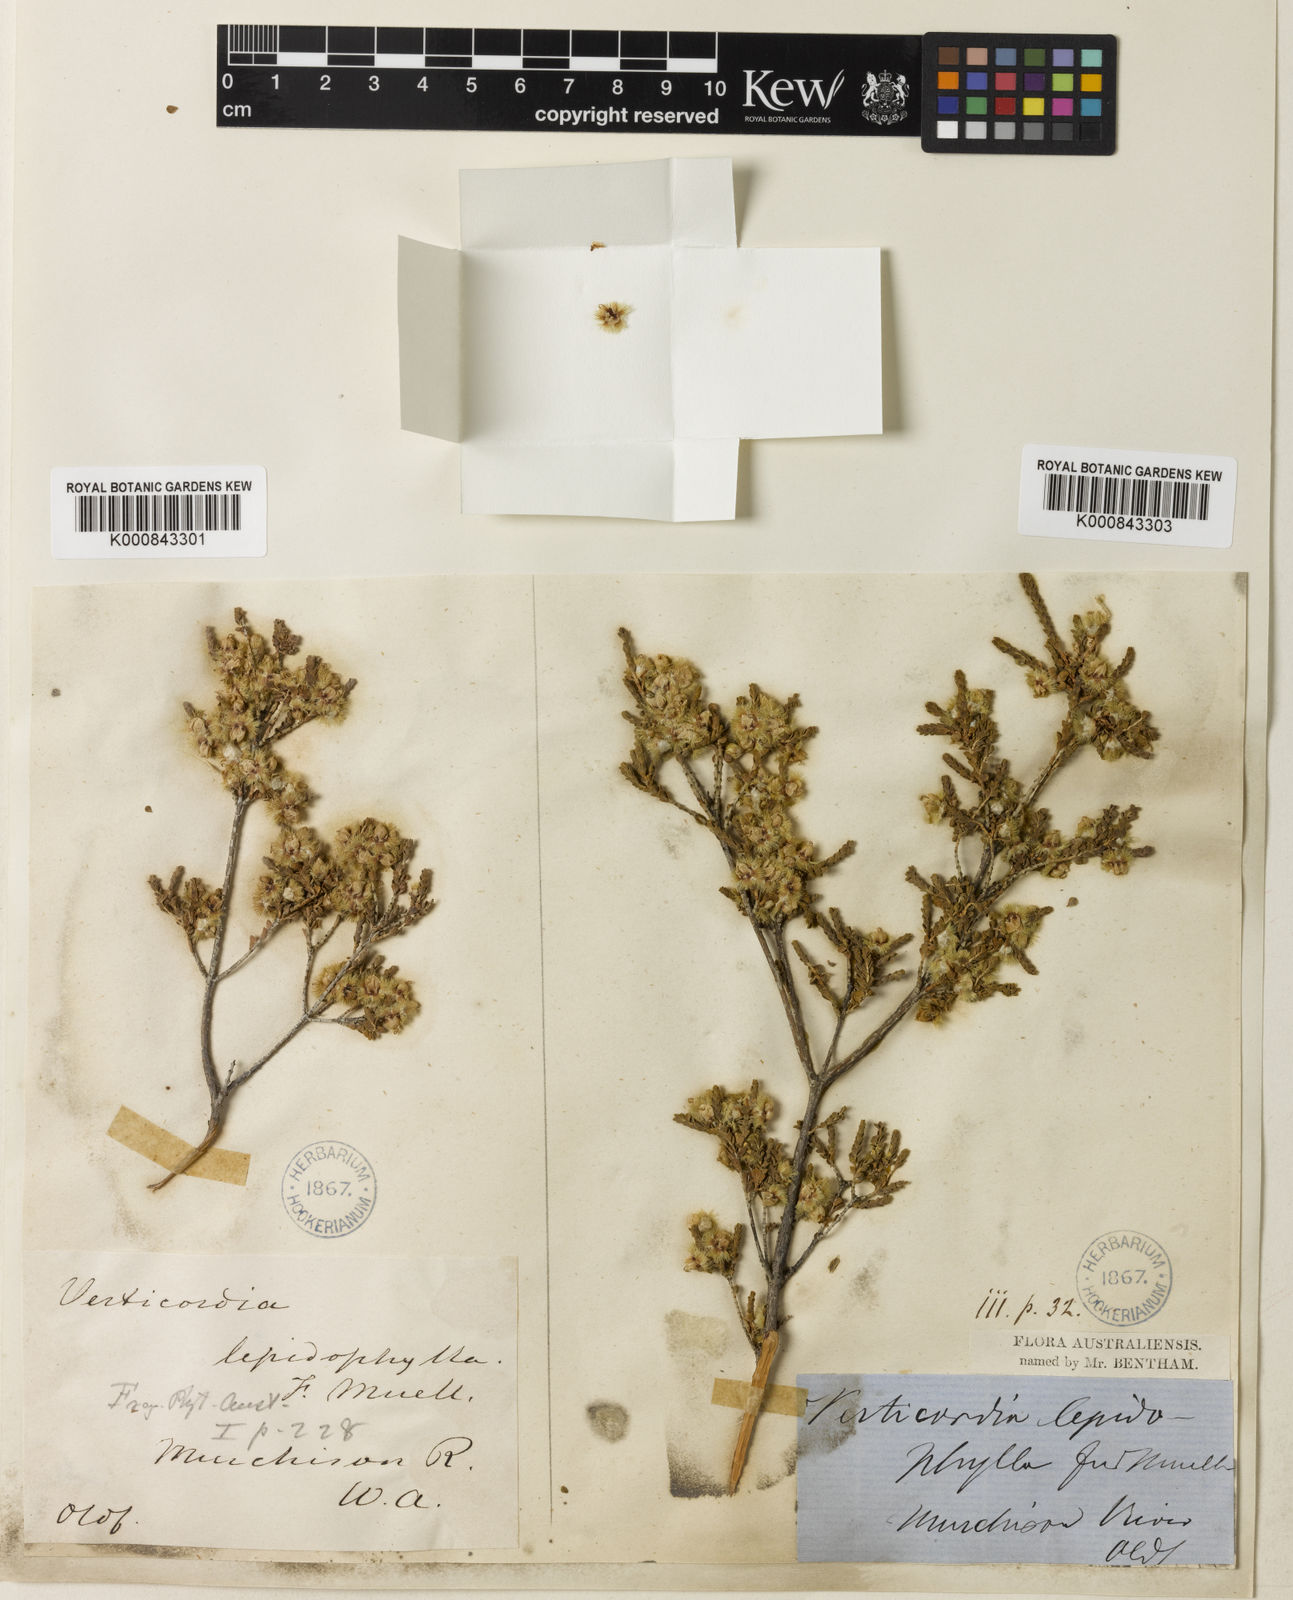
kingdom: Plantae
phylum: Tracheophyta
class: Magnoliopsida
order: Myrtales
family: Myrtaceae
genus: Verticordia
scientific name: Verticordia lepidophylla
